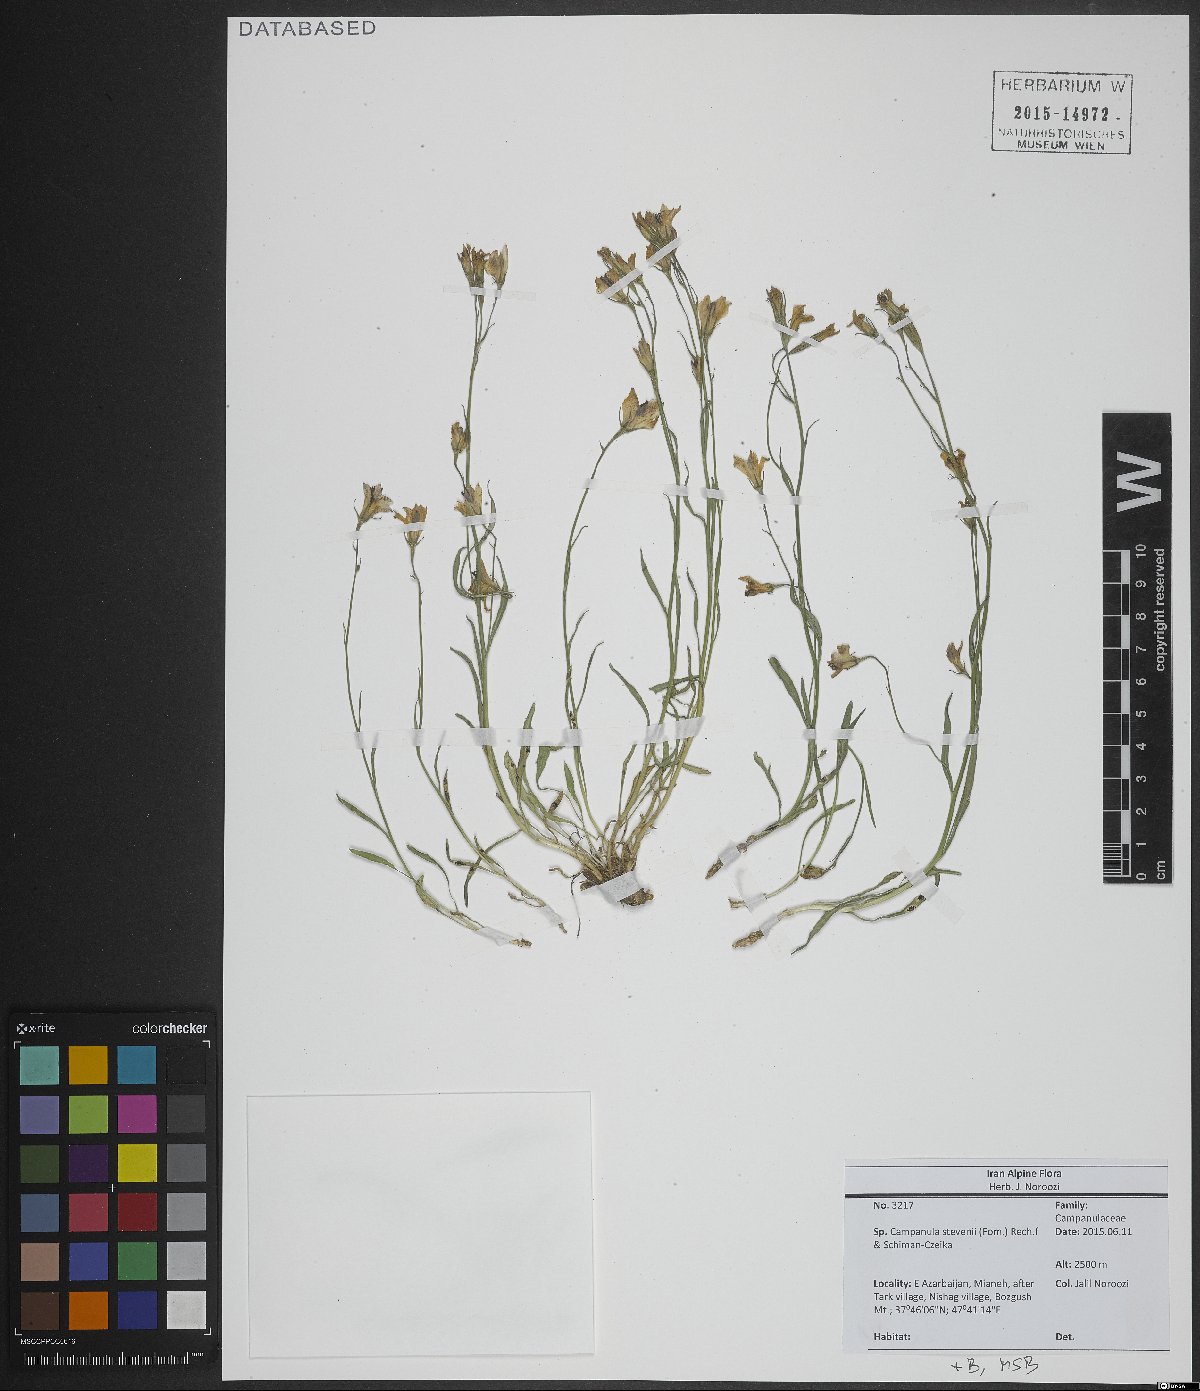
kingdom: Plantae
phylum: Tracheophyta
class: Magnoliopsida
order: Asterales
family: Campanulaceae
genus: Campanula
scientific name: Campanula stevenii
